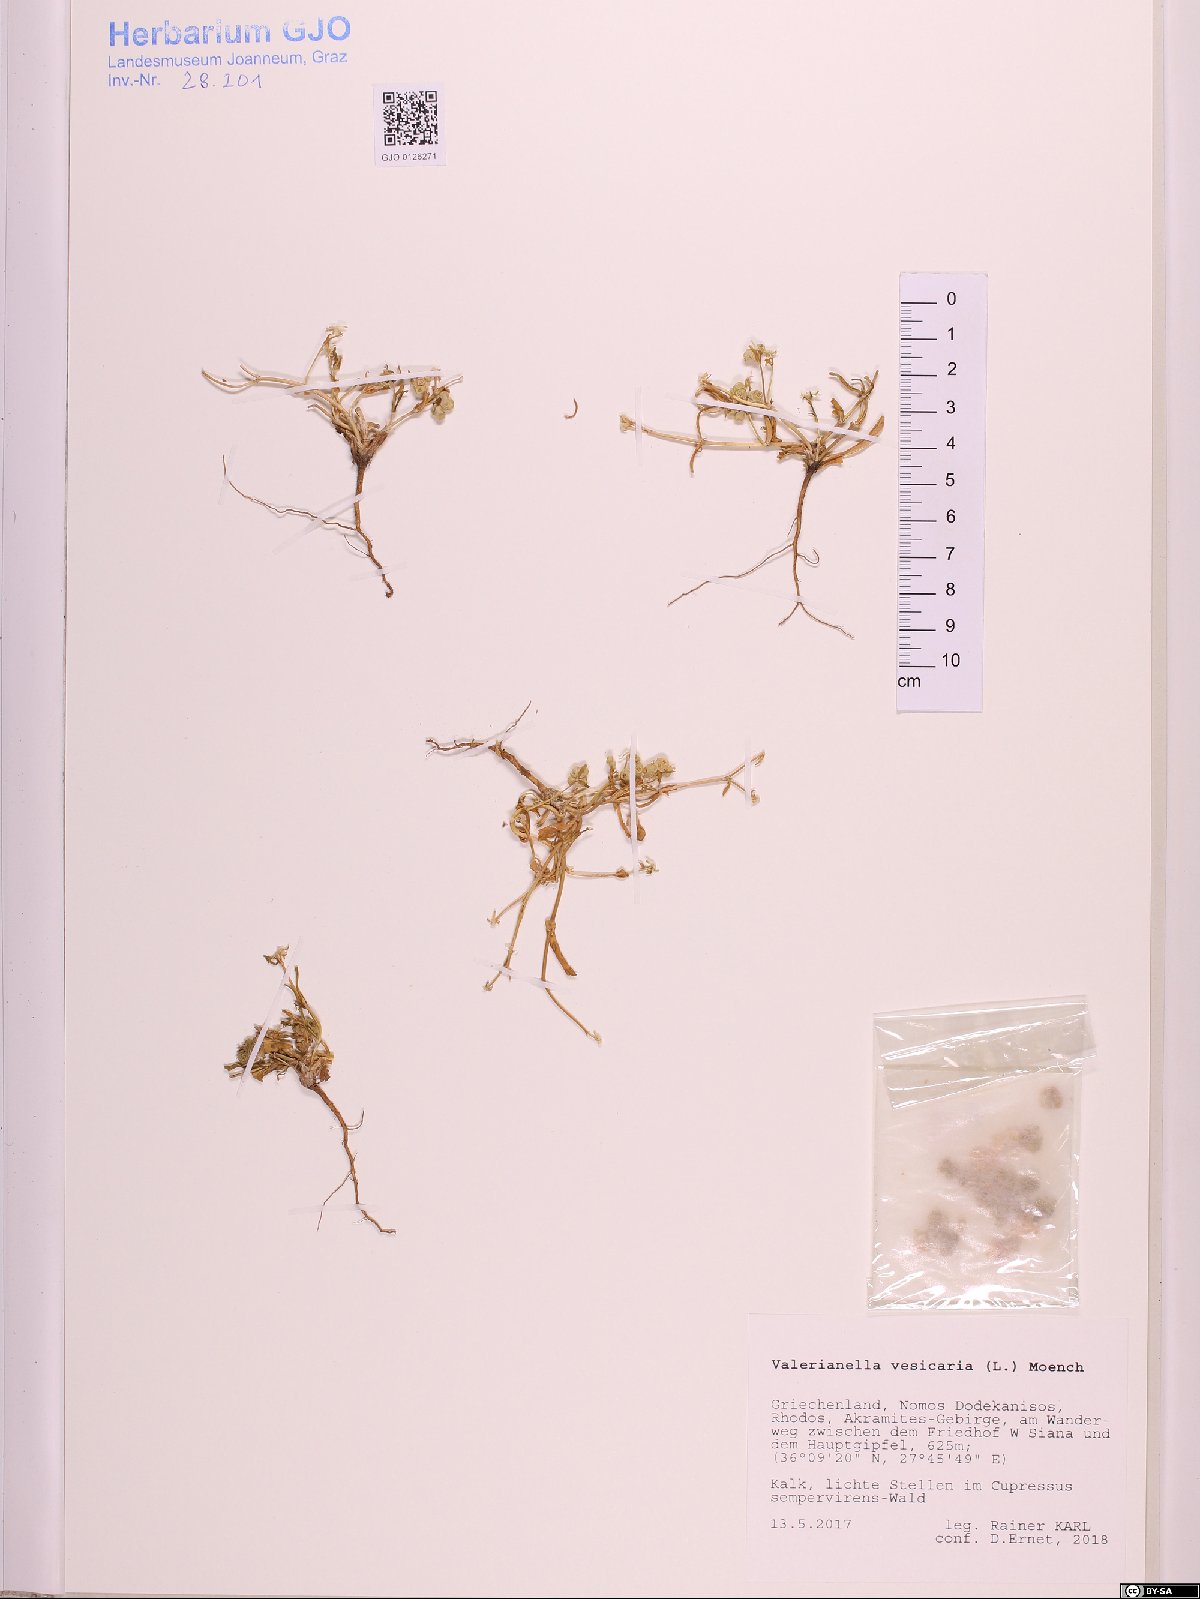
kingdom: Plantae
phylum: Tracheophyta
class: Magnoliopsida
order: Dipsacales
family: Caprifoliaceae
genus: Valerianella
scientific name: Valerianella vesicaria
